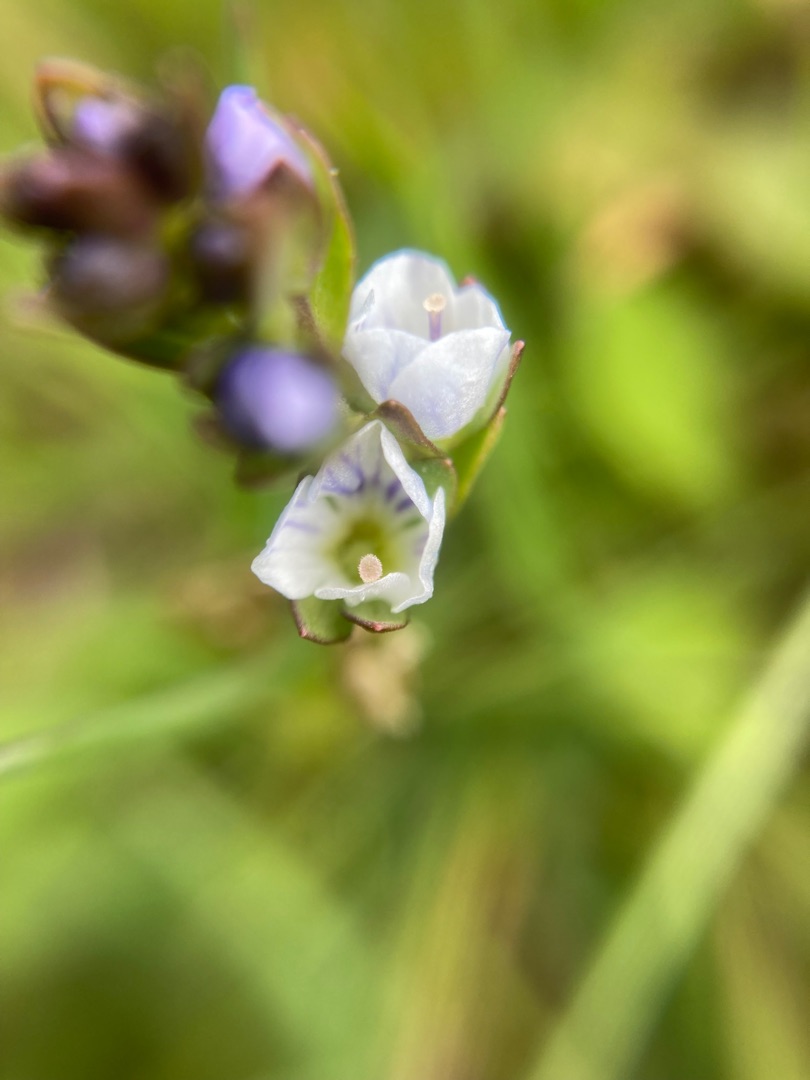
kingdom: Plantae
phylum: Tracheophyta
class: Magnoliopsida
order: Lamiales
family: Plantaginaceae
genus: Veronica
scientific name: Veronica serpyllifolia
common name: Glat ærenpris
